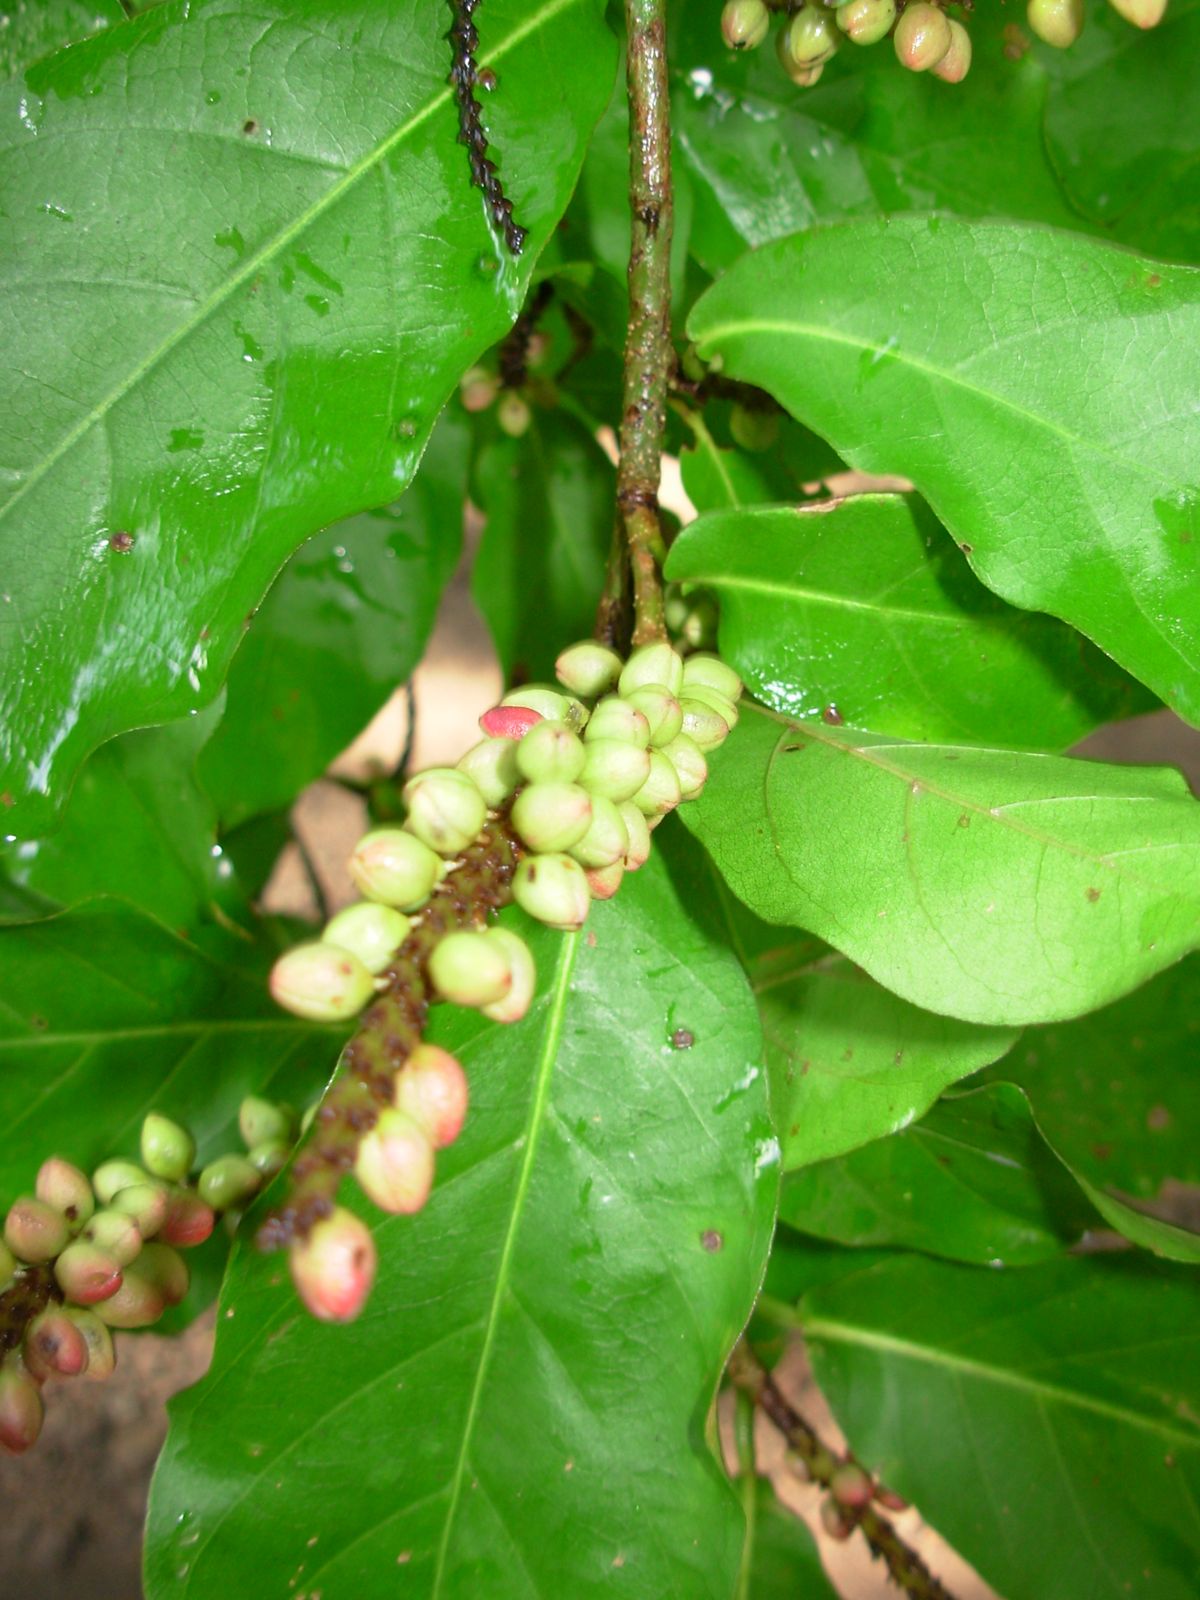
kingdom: Plantae
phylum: Tracheophyta
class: Magnoliopsida
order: Caryophyllales
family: Polygonaceae
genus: Coccoloba
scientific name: Coccoloba floribunda
